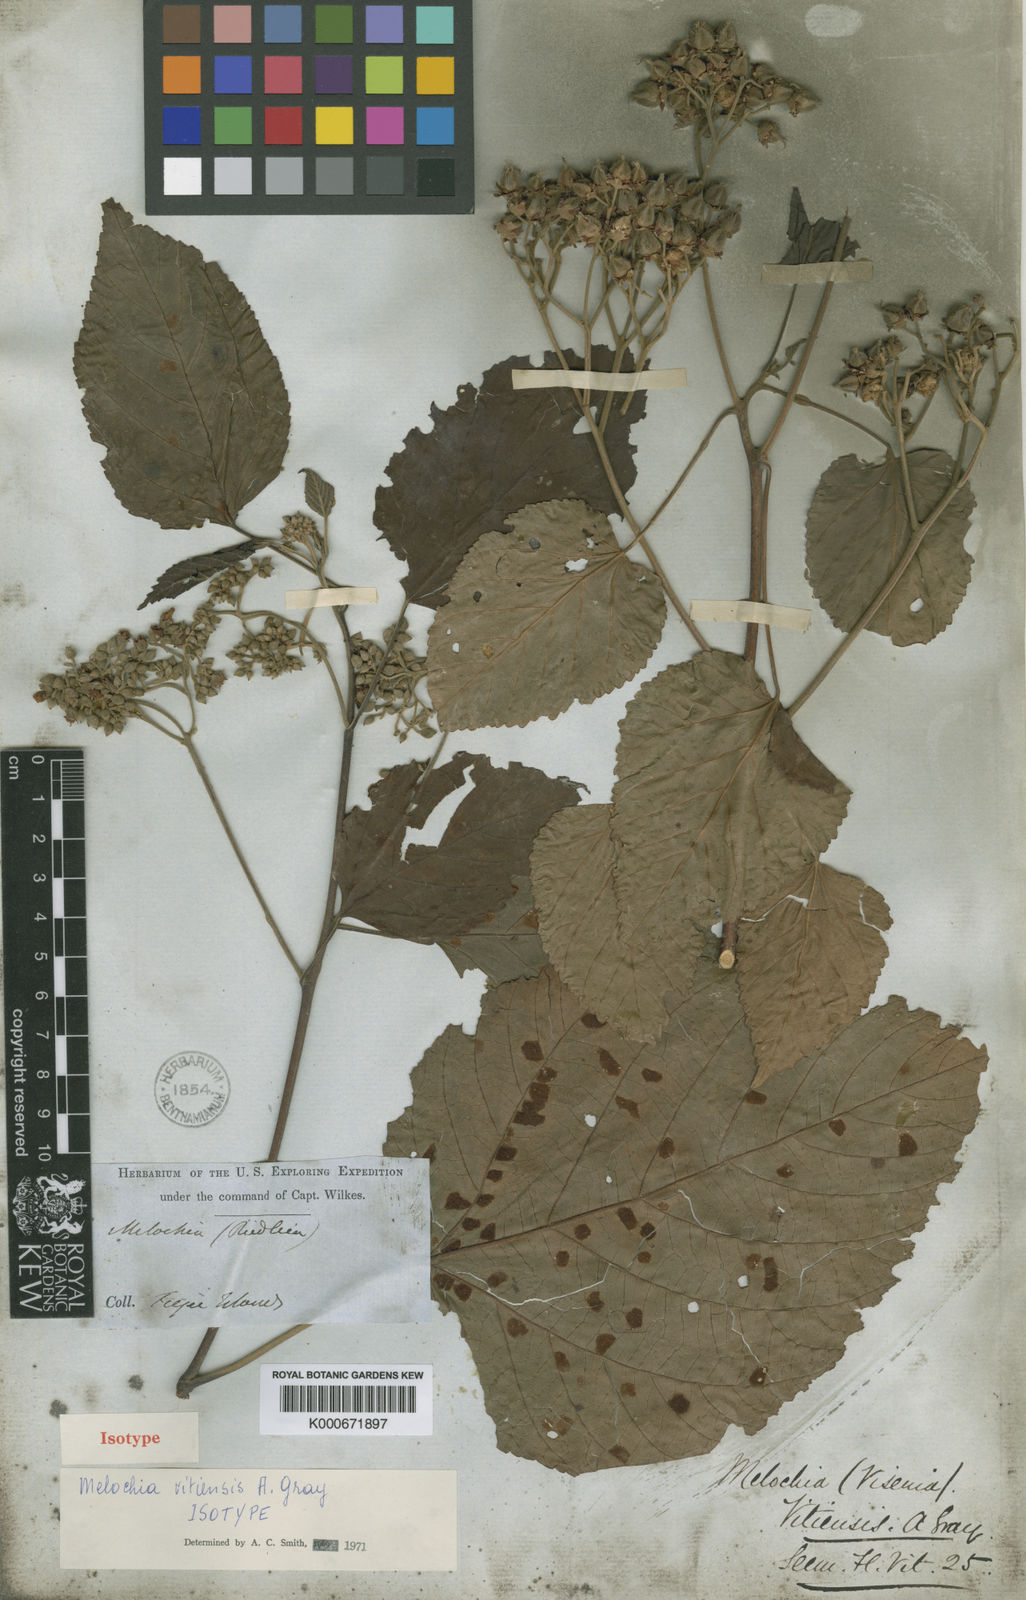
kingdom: Plantae
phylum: Tracheophyta
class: Magnoliopsida
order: Malvales
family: Malvaceae
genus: Melochia
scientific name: Melochia odorata
